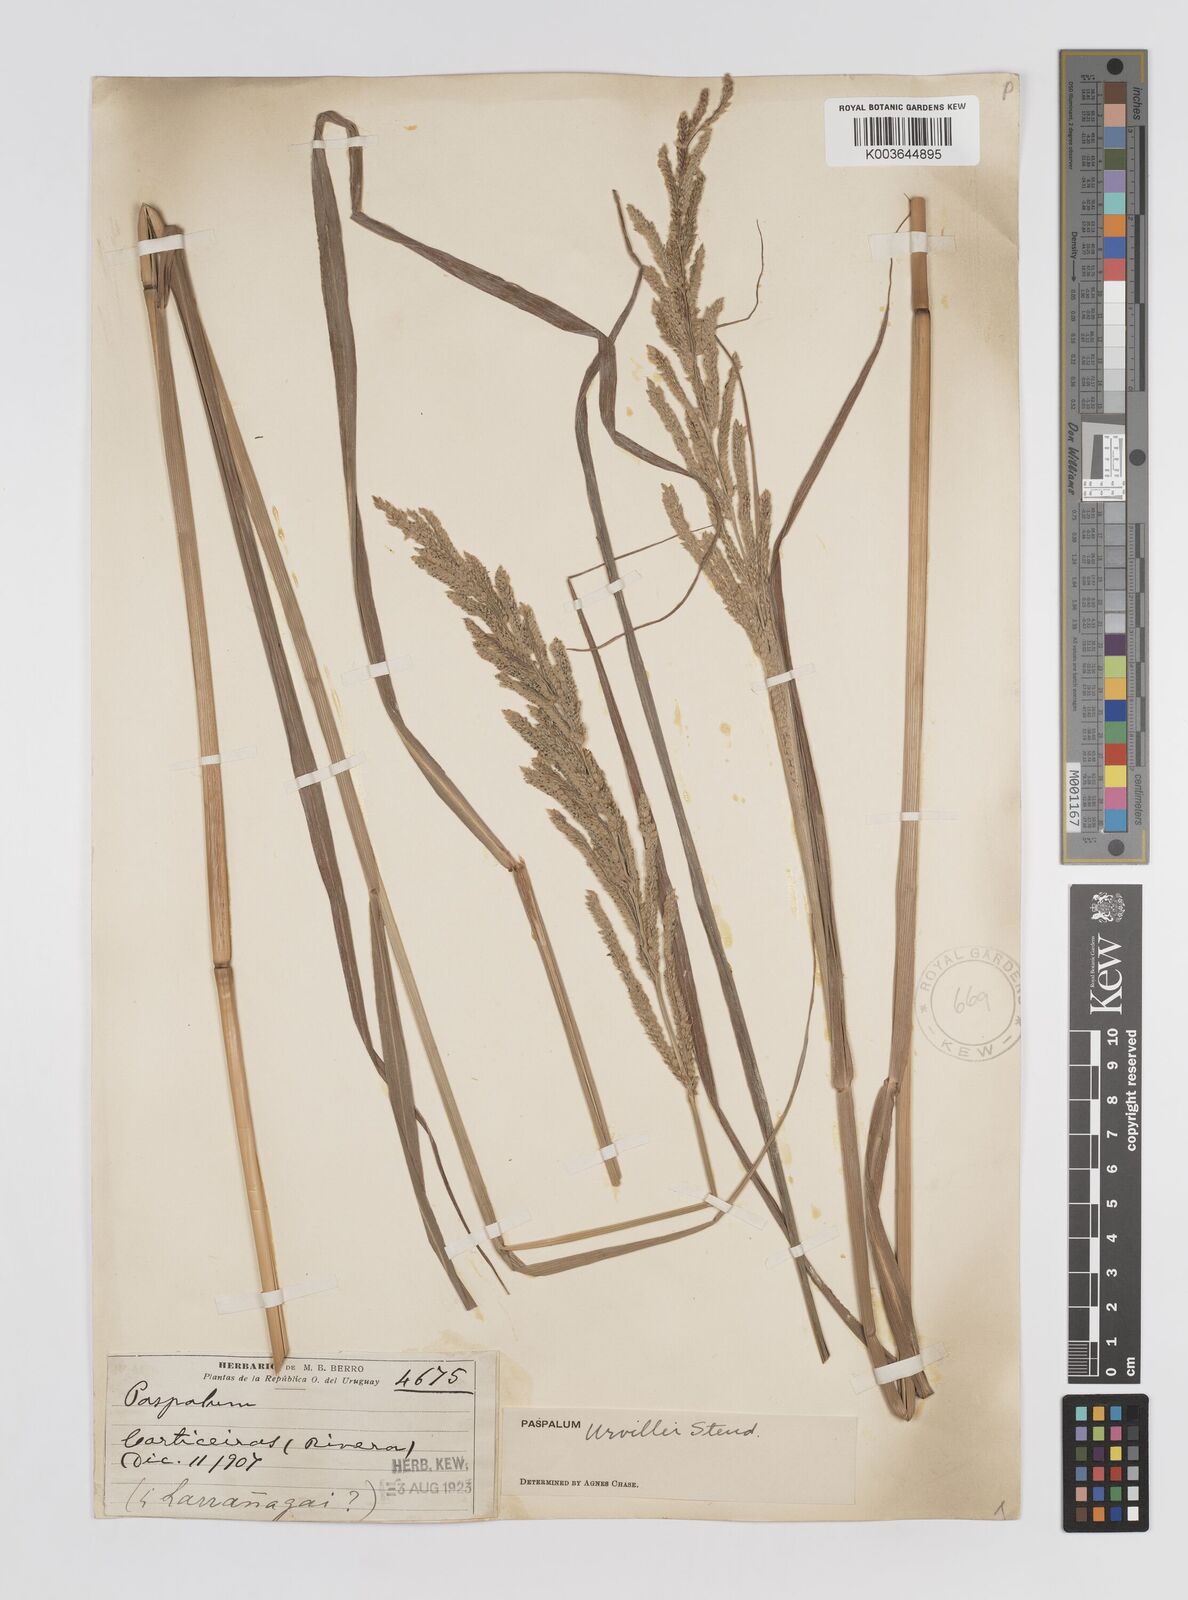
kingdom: Plantae
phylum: Tracheophyta
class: Liliopsida
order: Poales
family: Poaceae
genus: Paspalum
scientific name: Paspalum urvillei
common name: Vasey's grass
